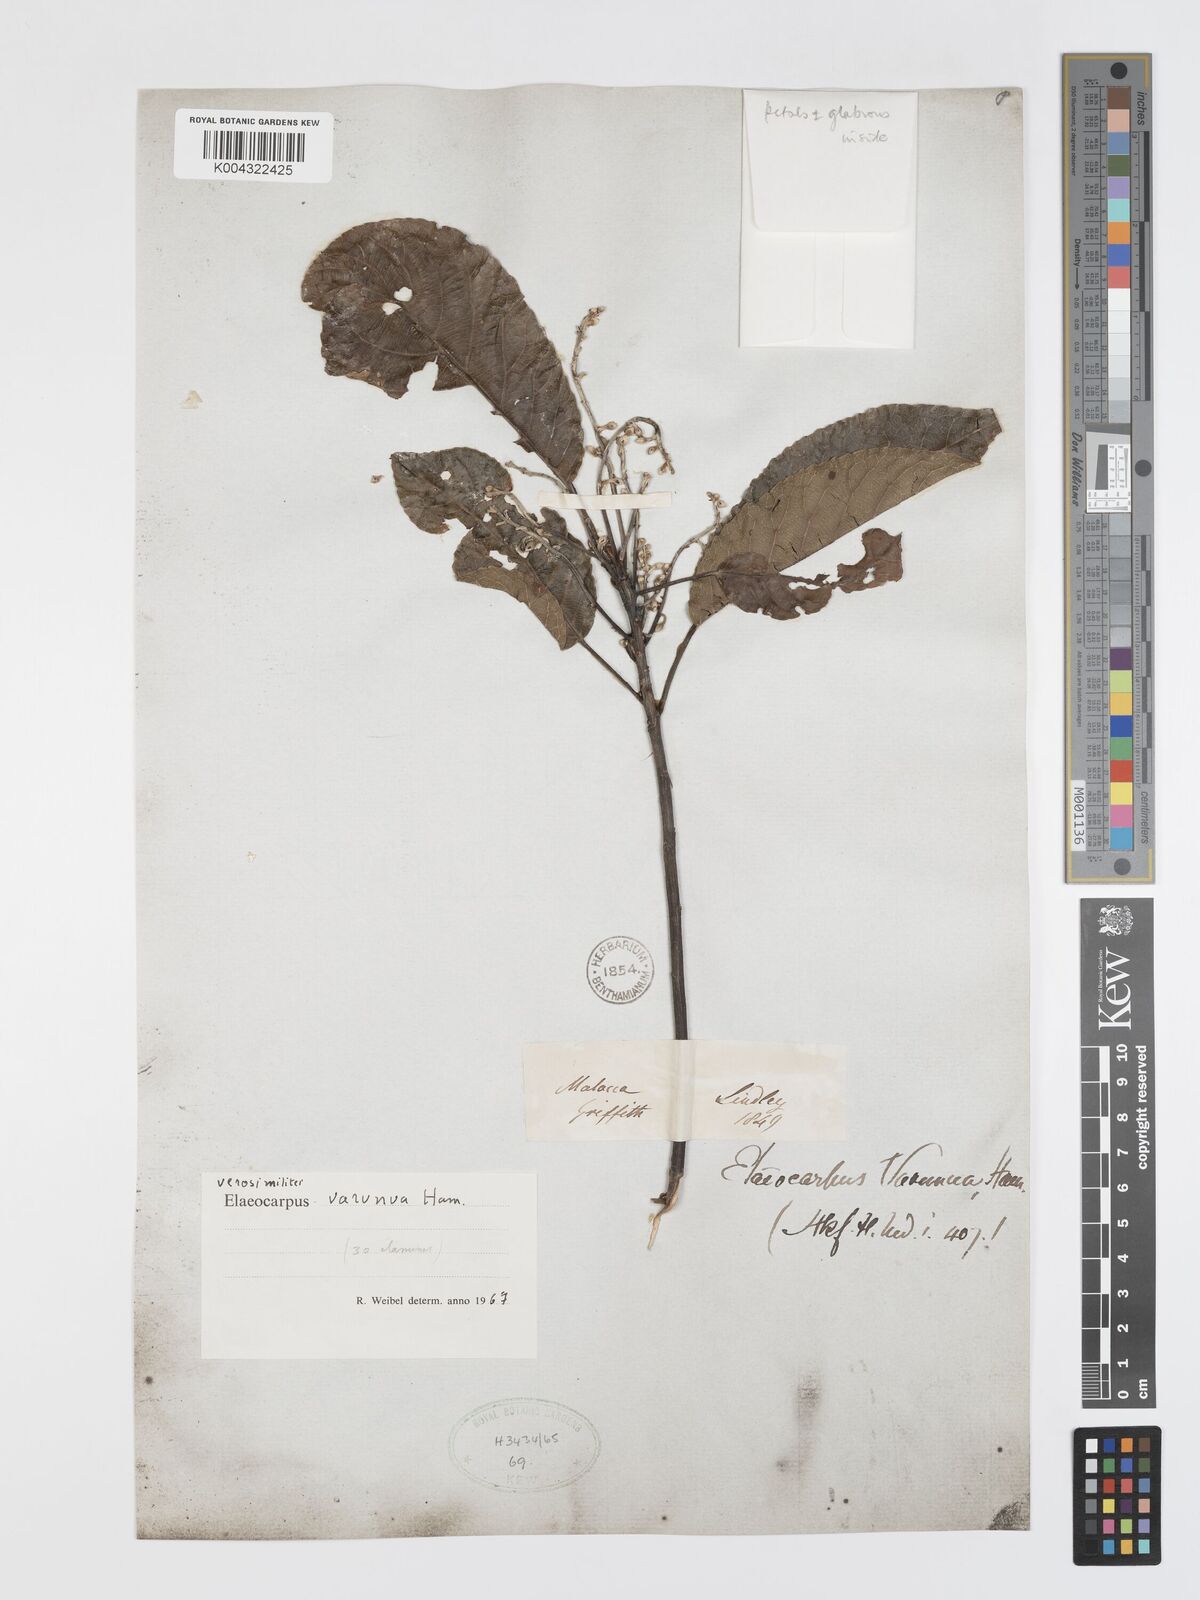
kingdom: Plantae
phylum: Tracheophyta
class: Magnoliopsida
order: Oxalidales
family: Elaeocarpaceae
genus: Elaeocarpus
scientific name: Elaeocarpus varunua
